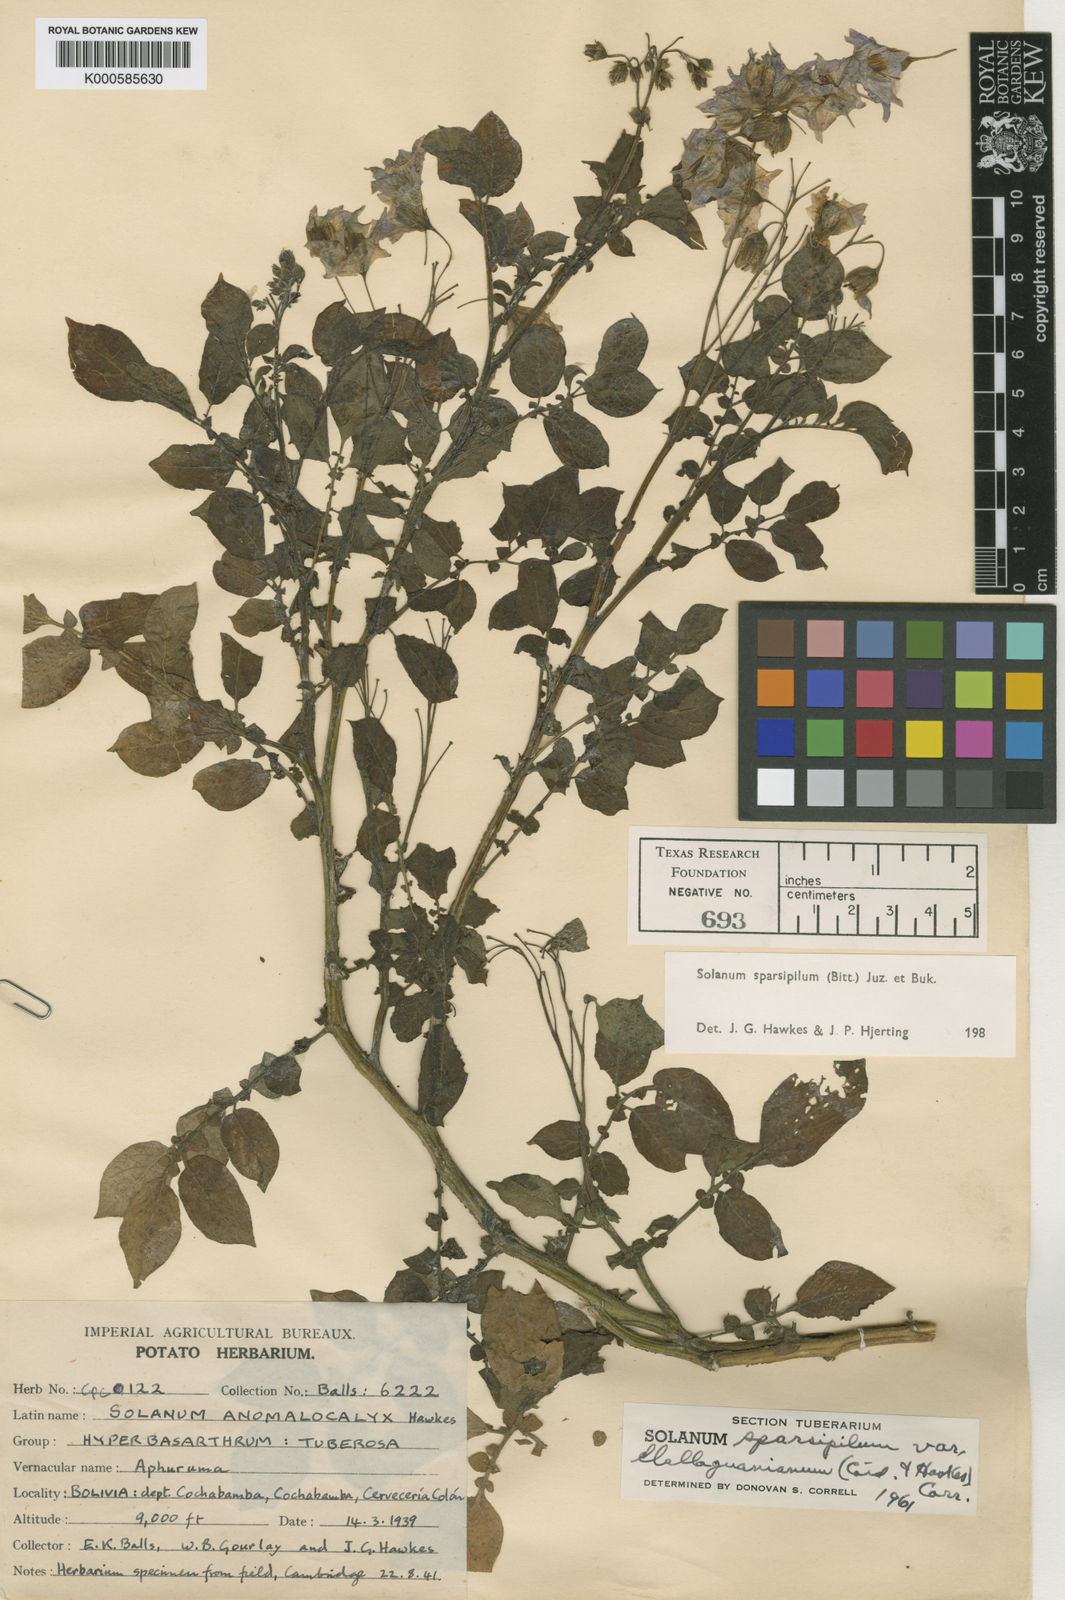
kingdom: Plantae
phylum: Tracheophyta
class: Magnoliopsida
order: Solanales
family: Solanaceae
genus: Solanum
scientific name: Solanum brevicaule
